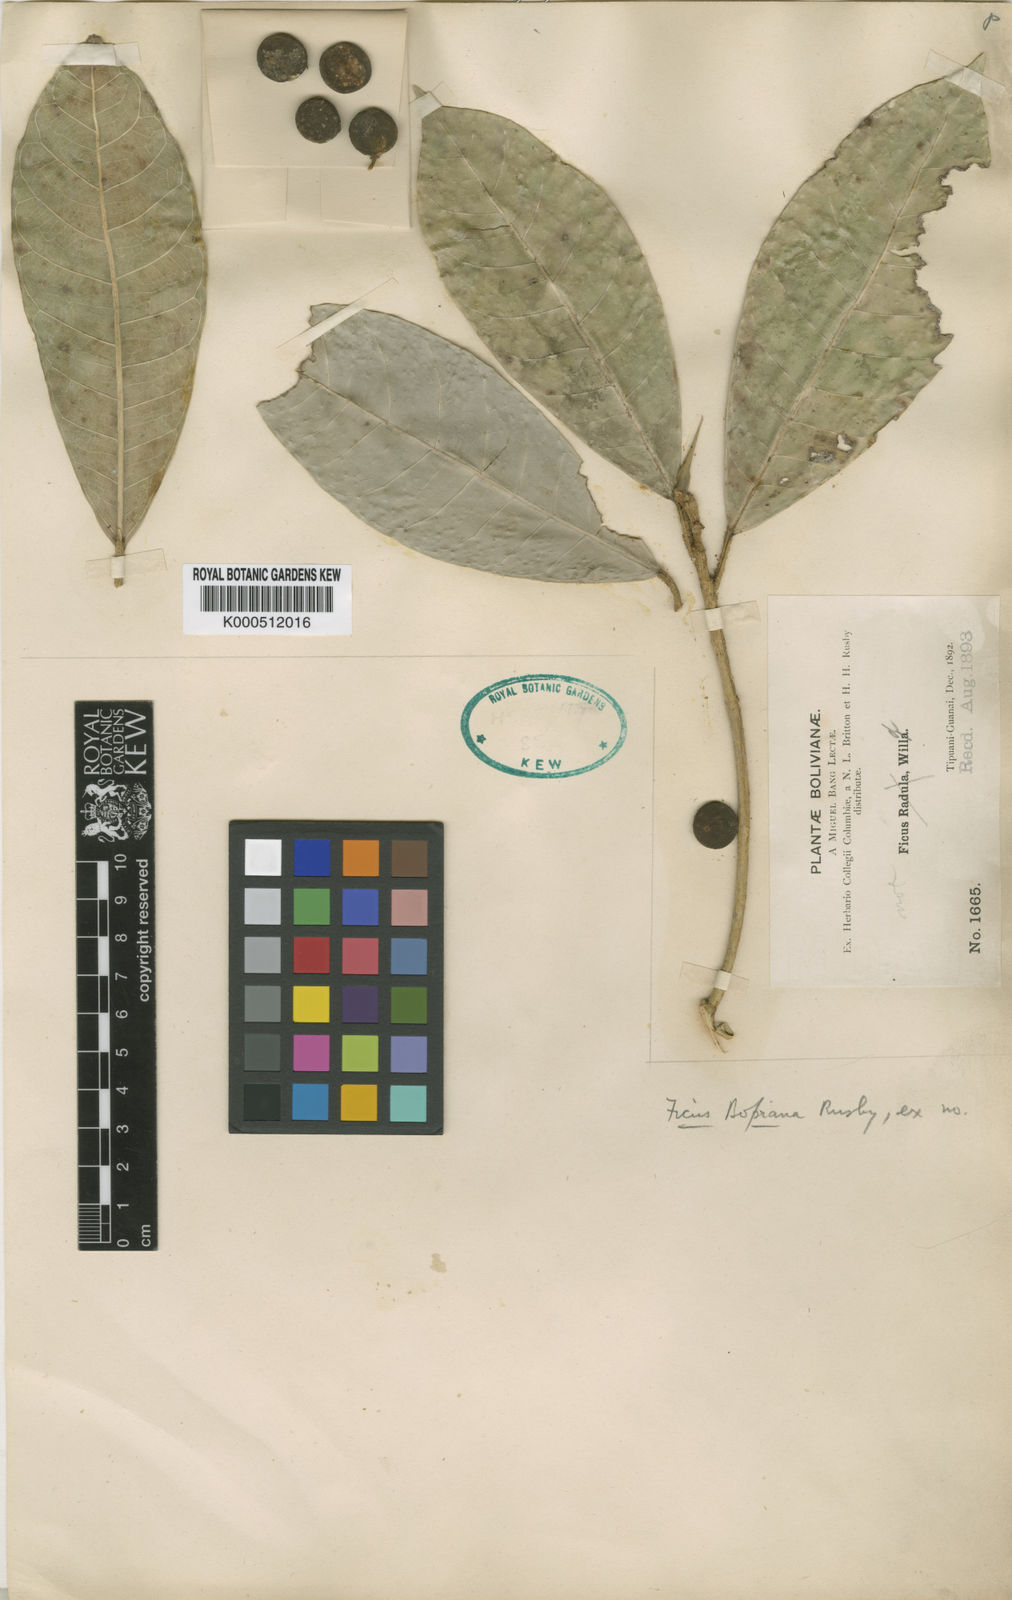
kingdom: Plantae
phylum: Tracheophyta
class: Magnoliopsida
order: Rosales
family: Moraceae
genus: Ficus
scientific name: Ficus maxima
